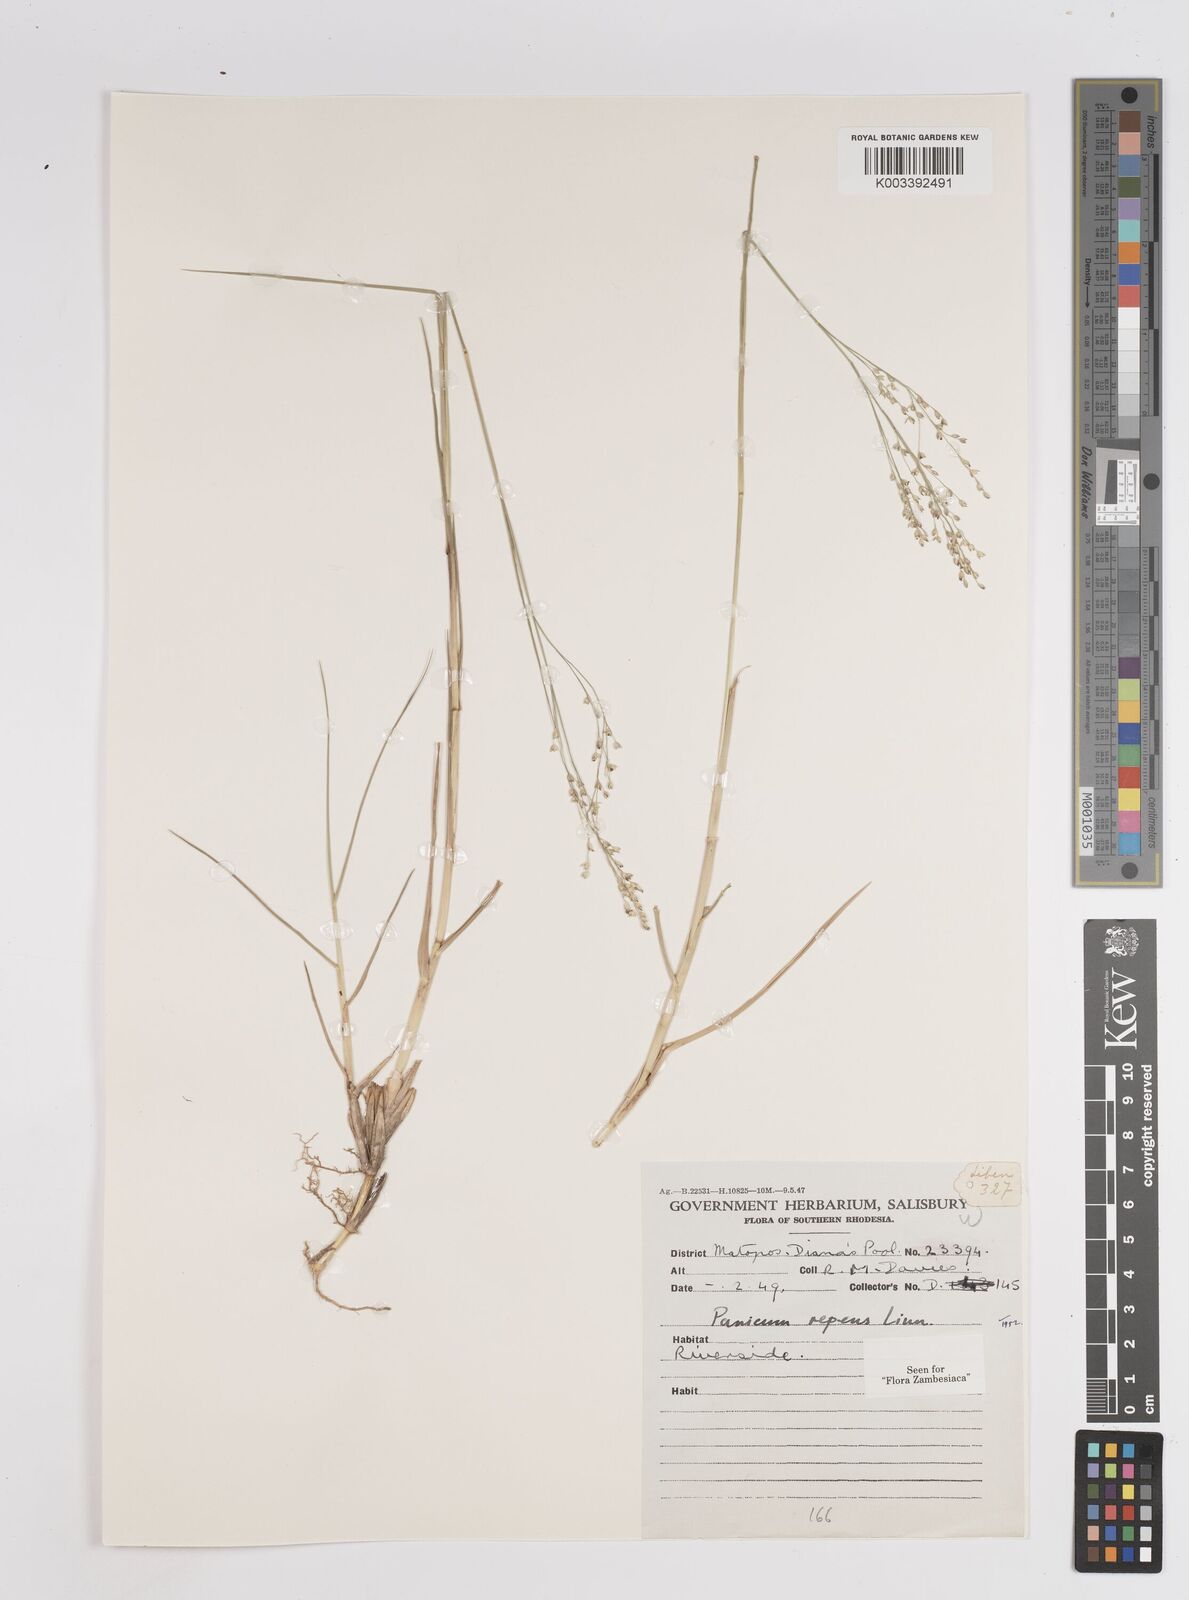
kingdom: Plantae
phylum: Tracheophyta
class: Liliopsida
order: Poales
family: Poaceae
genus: Panicum
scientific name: Panicum repens
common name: Torpedo grass
